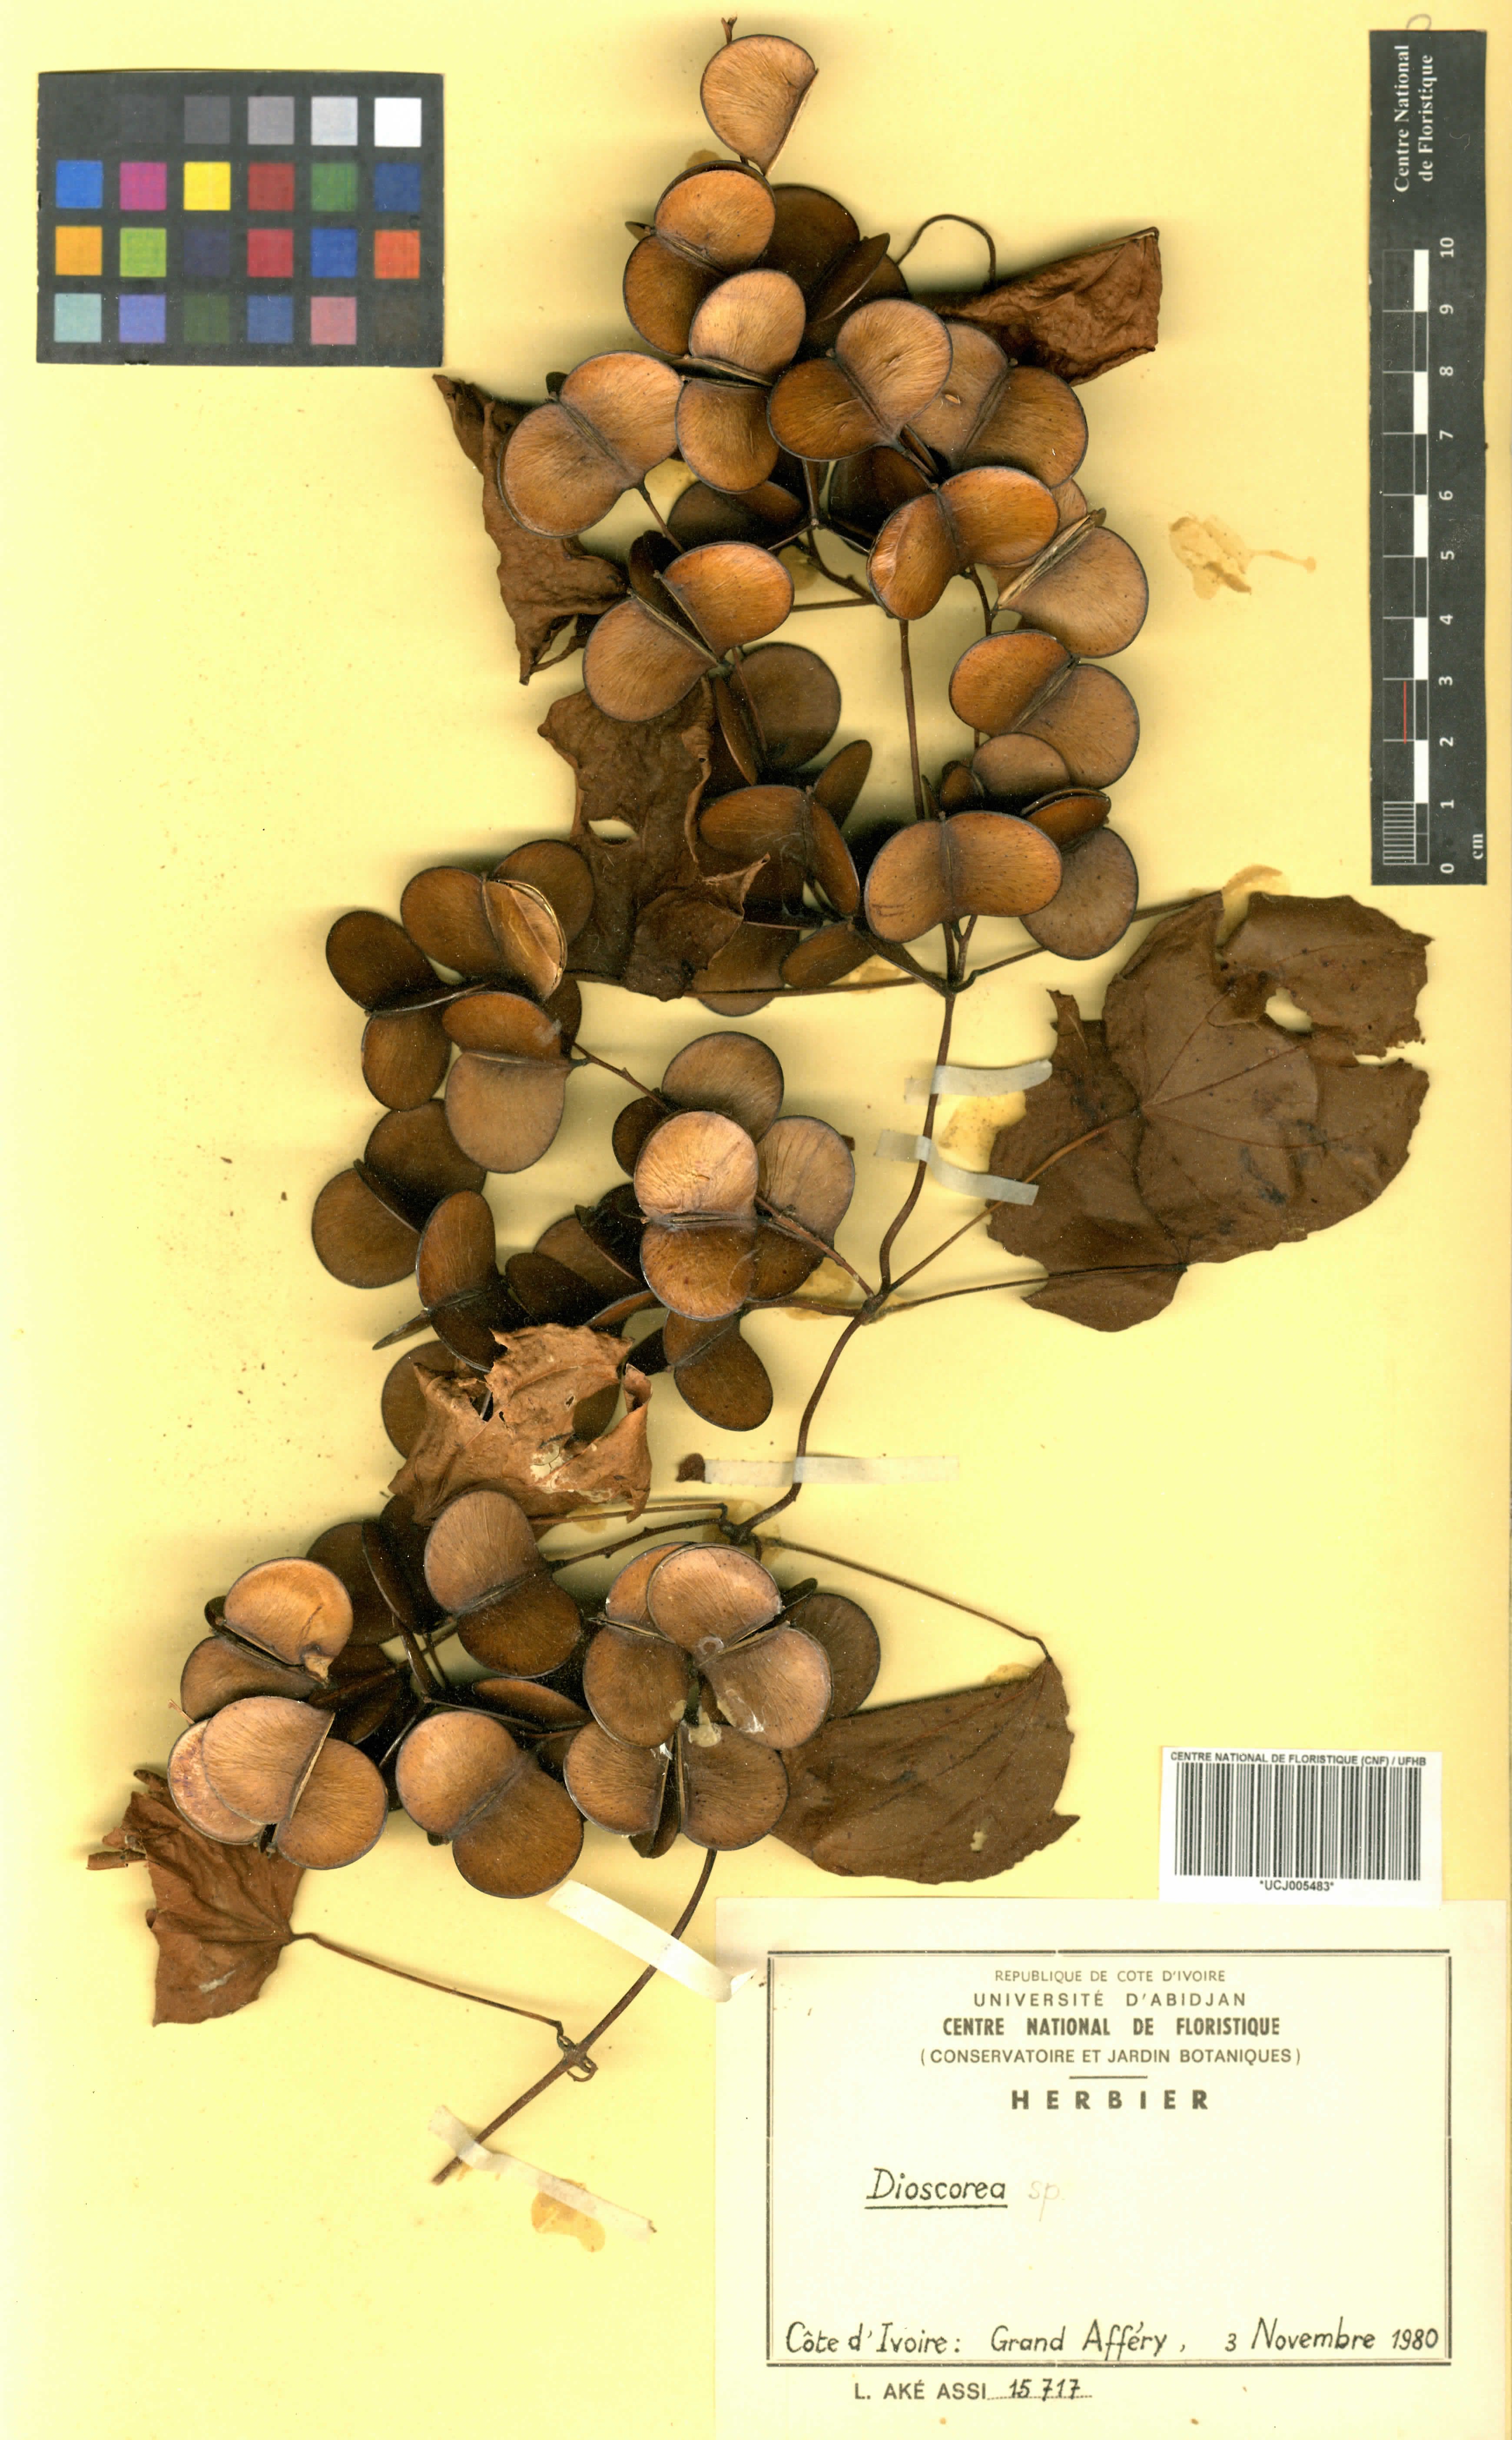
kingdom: Plantae
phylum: Tracheophyta
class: Liliopsida
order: Dioscoreales
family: Dioscoreaceae
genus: Dioscorea
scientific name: Dioscorea
